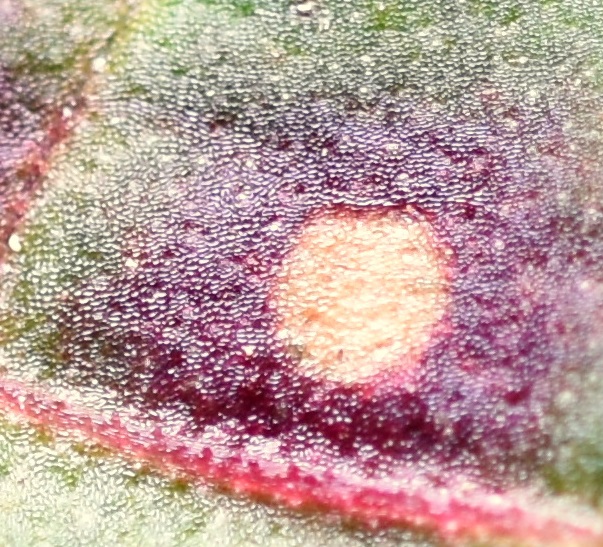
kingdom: Fungi
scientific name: Fungi
